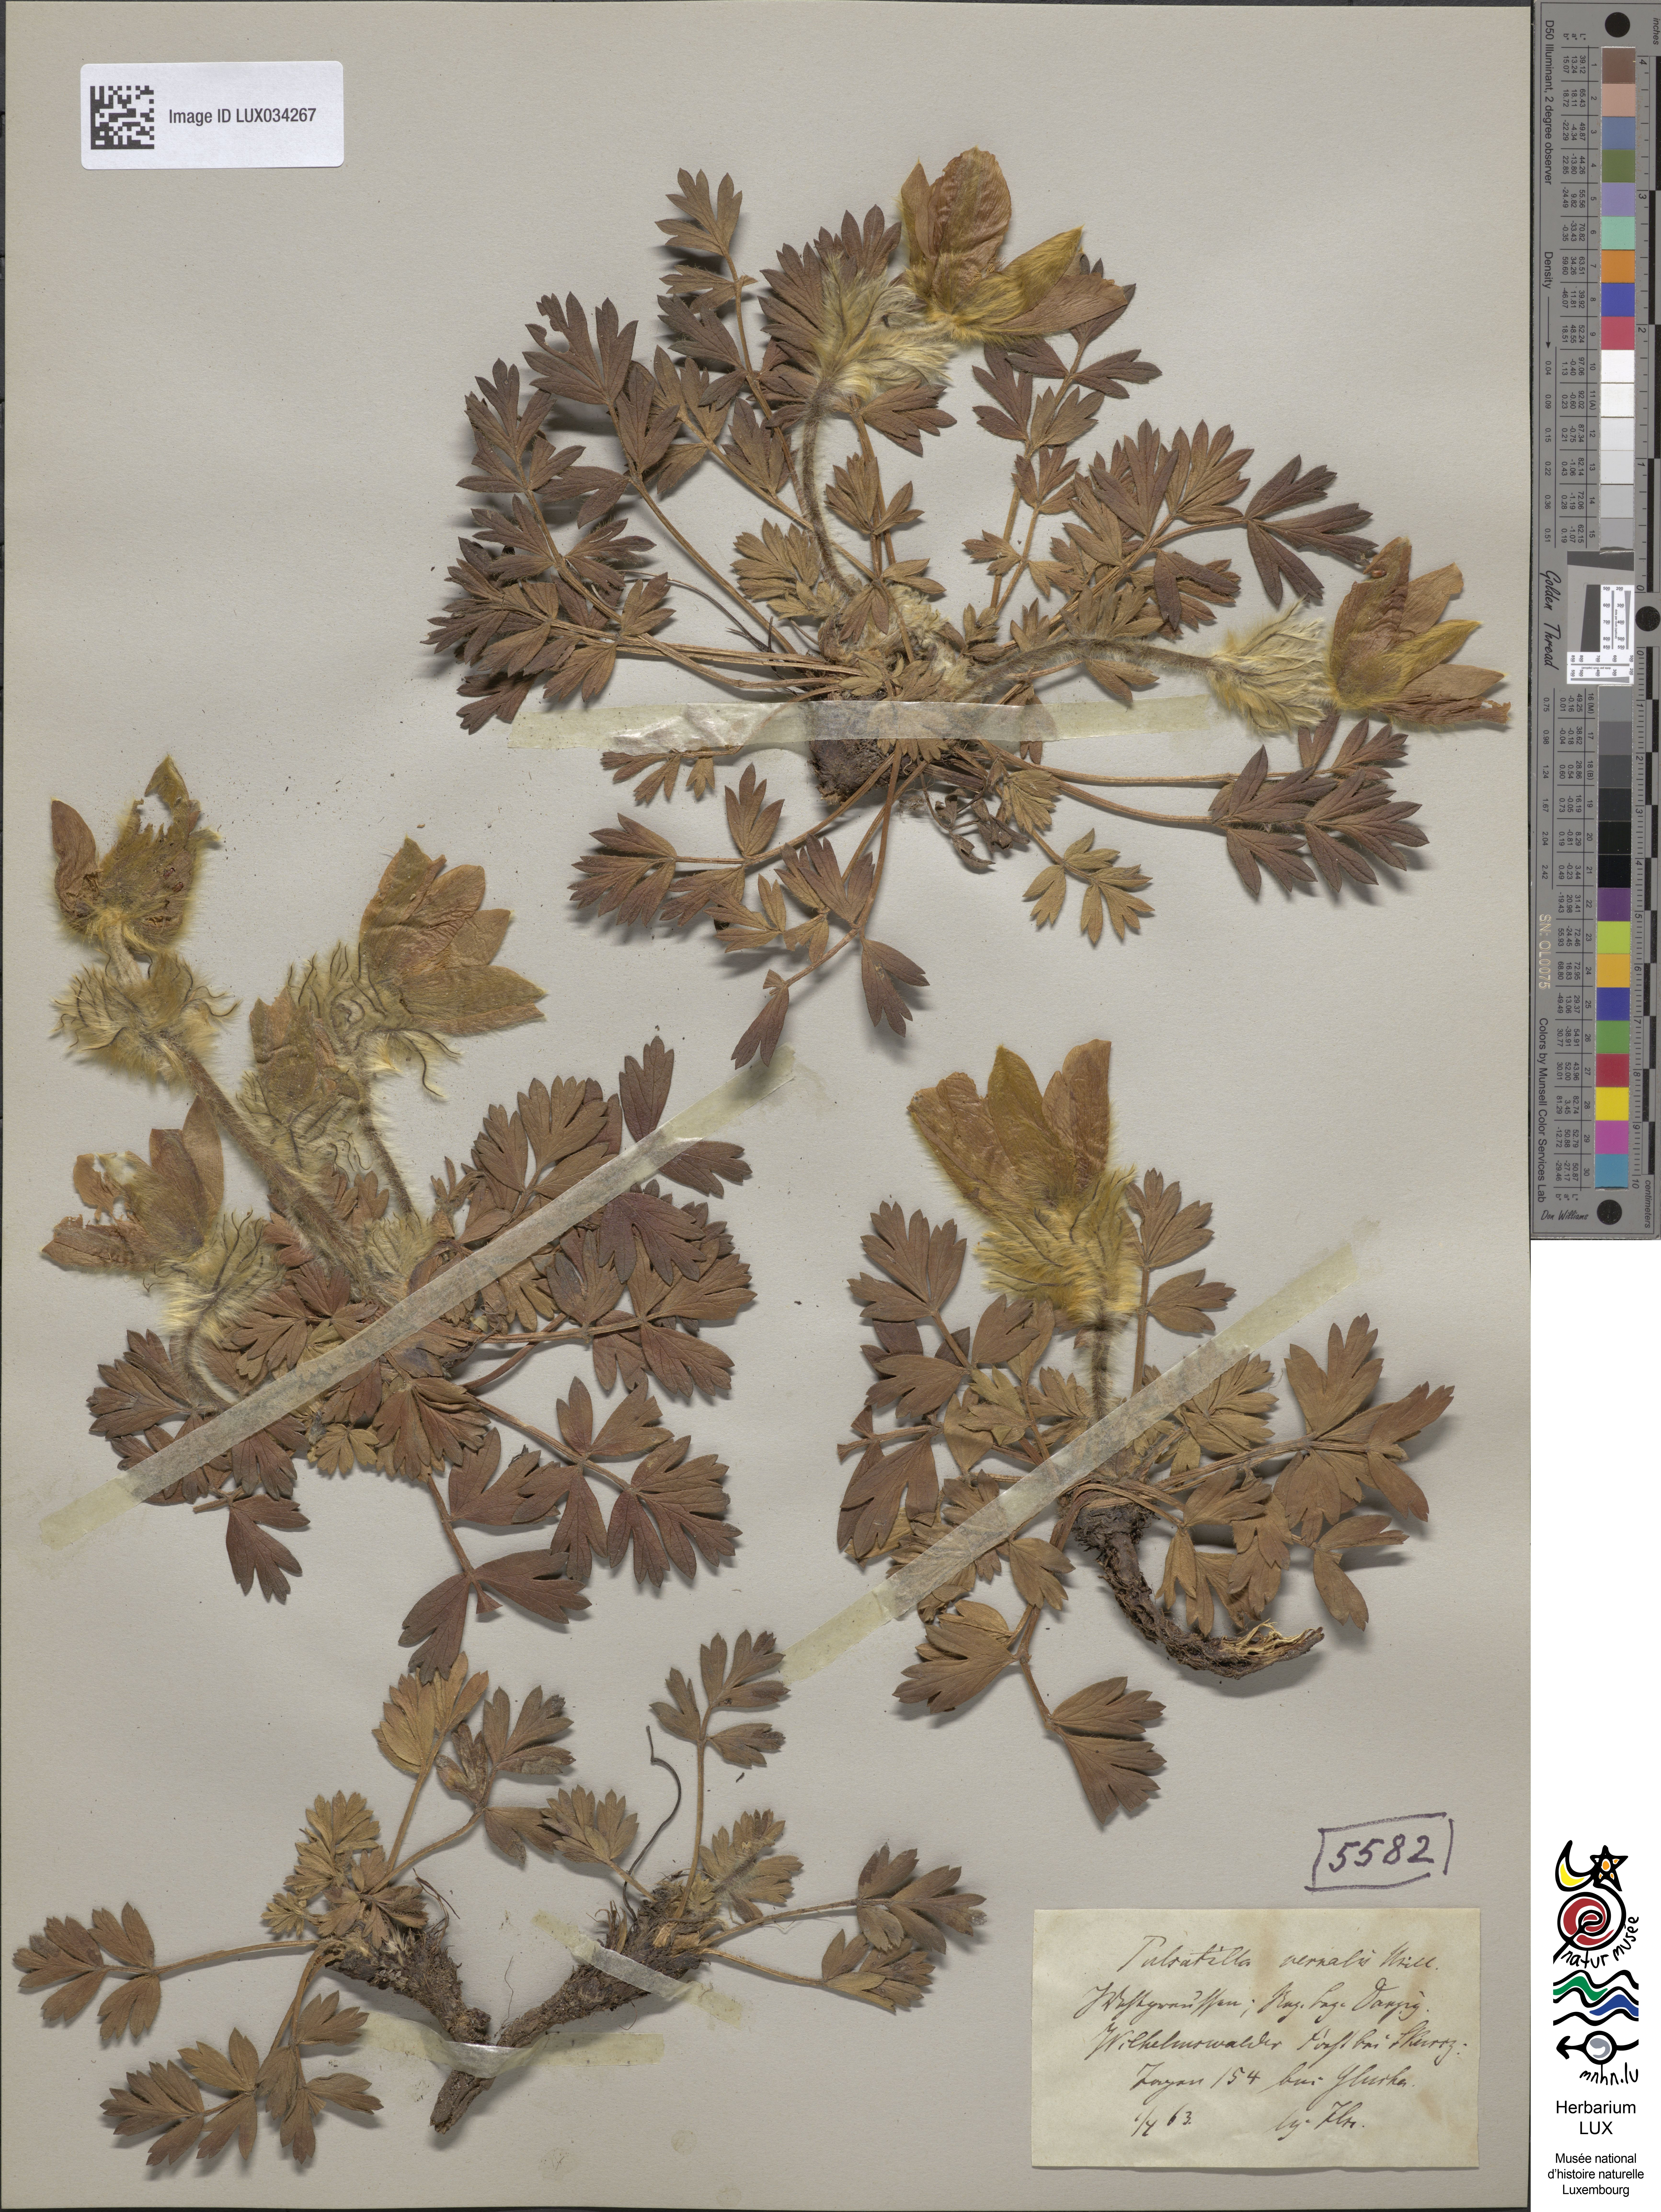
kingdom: Plantae
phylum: Tracheophyta
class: Magnoliopsida
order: Ranunculales
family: Ranunculaceae
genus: Pulsatilla
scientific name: Pulsatilla vernalis
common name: Spring pasque flower
